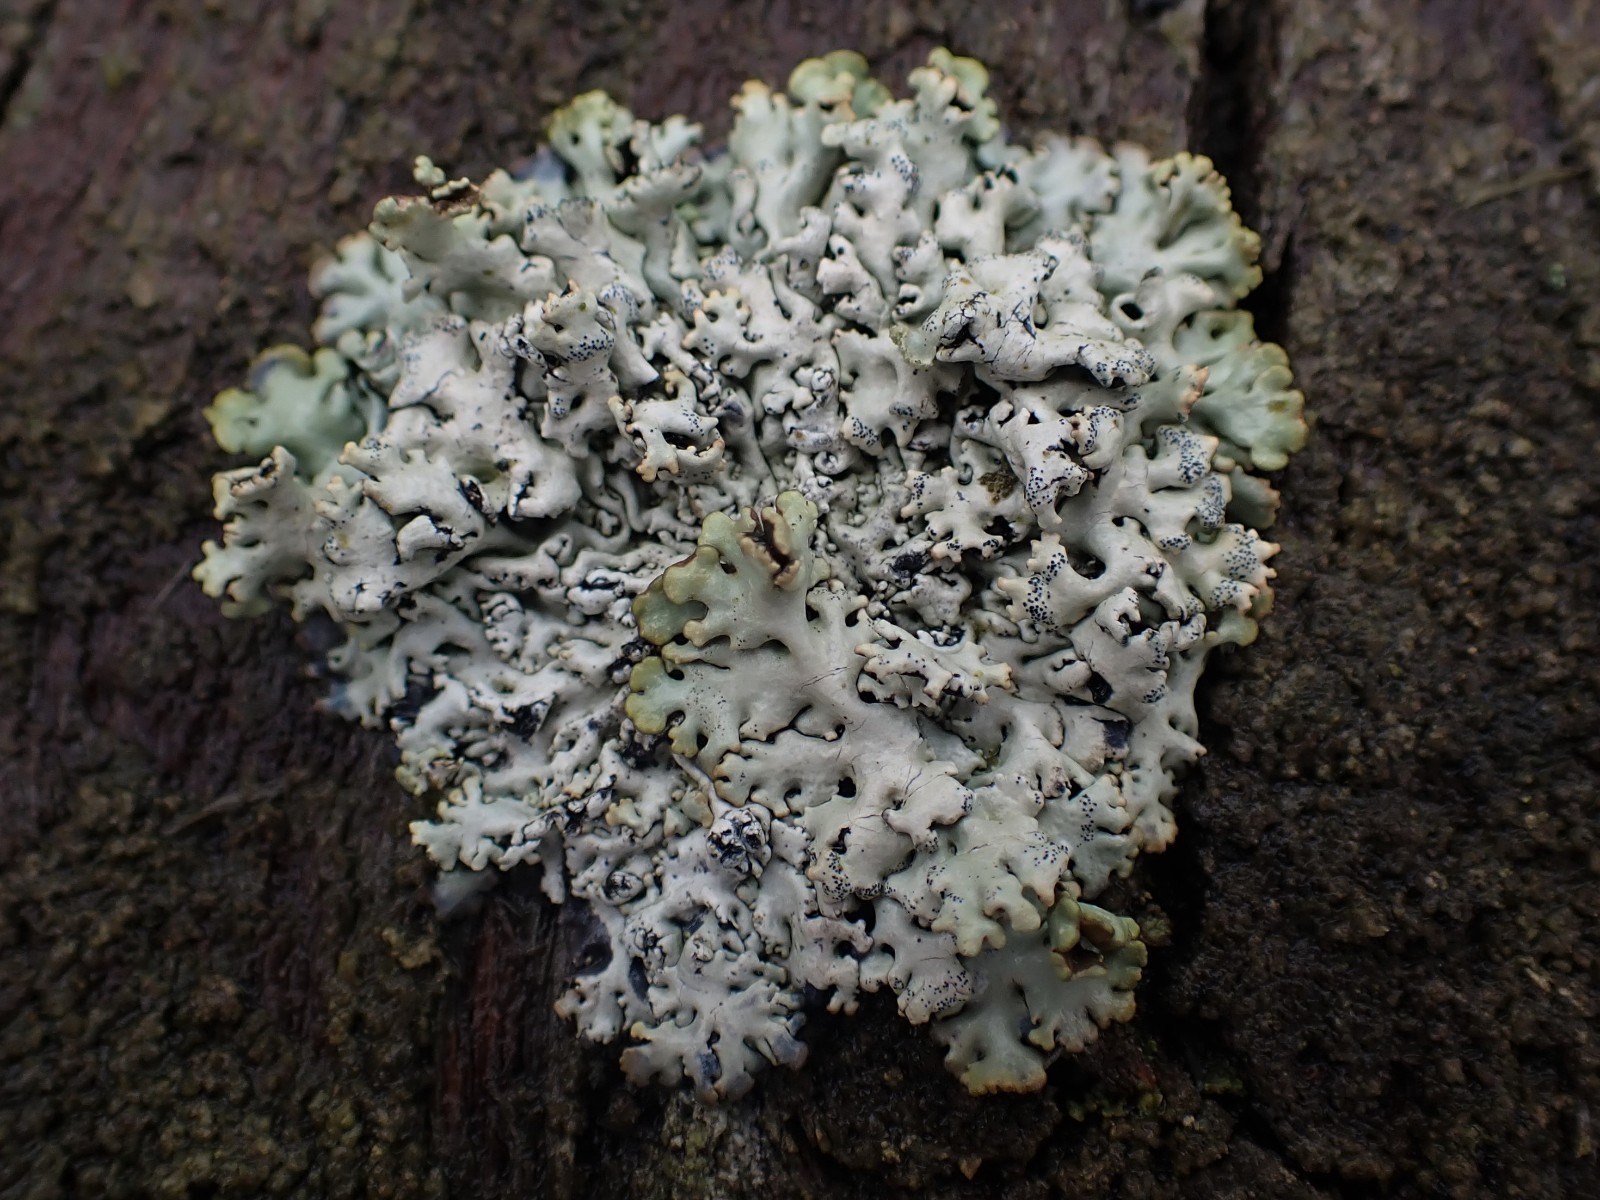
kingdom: Fungi
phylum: Ascomycota
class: Lecanoromycetes
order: Lecanorales
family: Parmeliaceae
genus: Hypogymnia
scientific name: Hypogymnia physodes
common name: almindelig kvistlav
